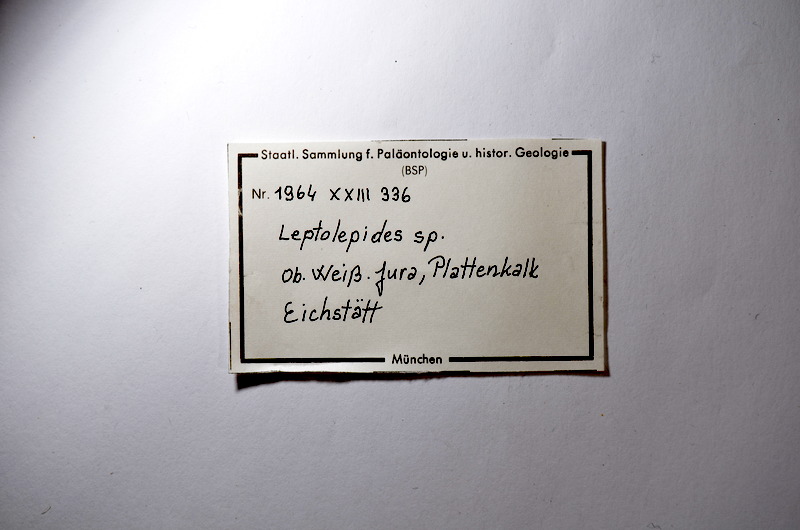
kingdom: Animalia
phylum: Chordata
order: Salmoniformes
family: Orthogonikleithridae
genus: Leptolepides
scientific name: Leptolepides
